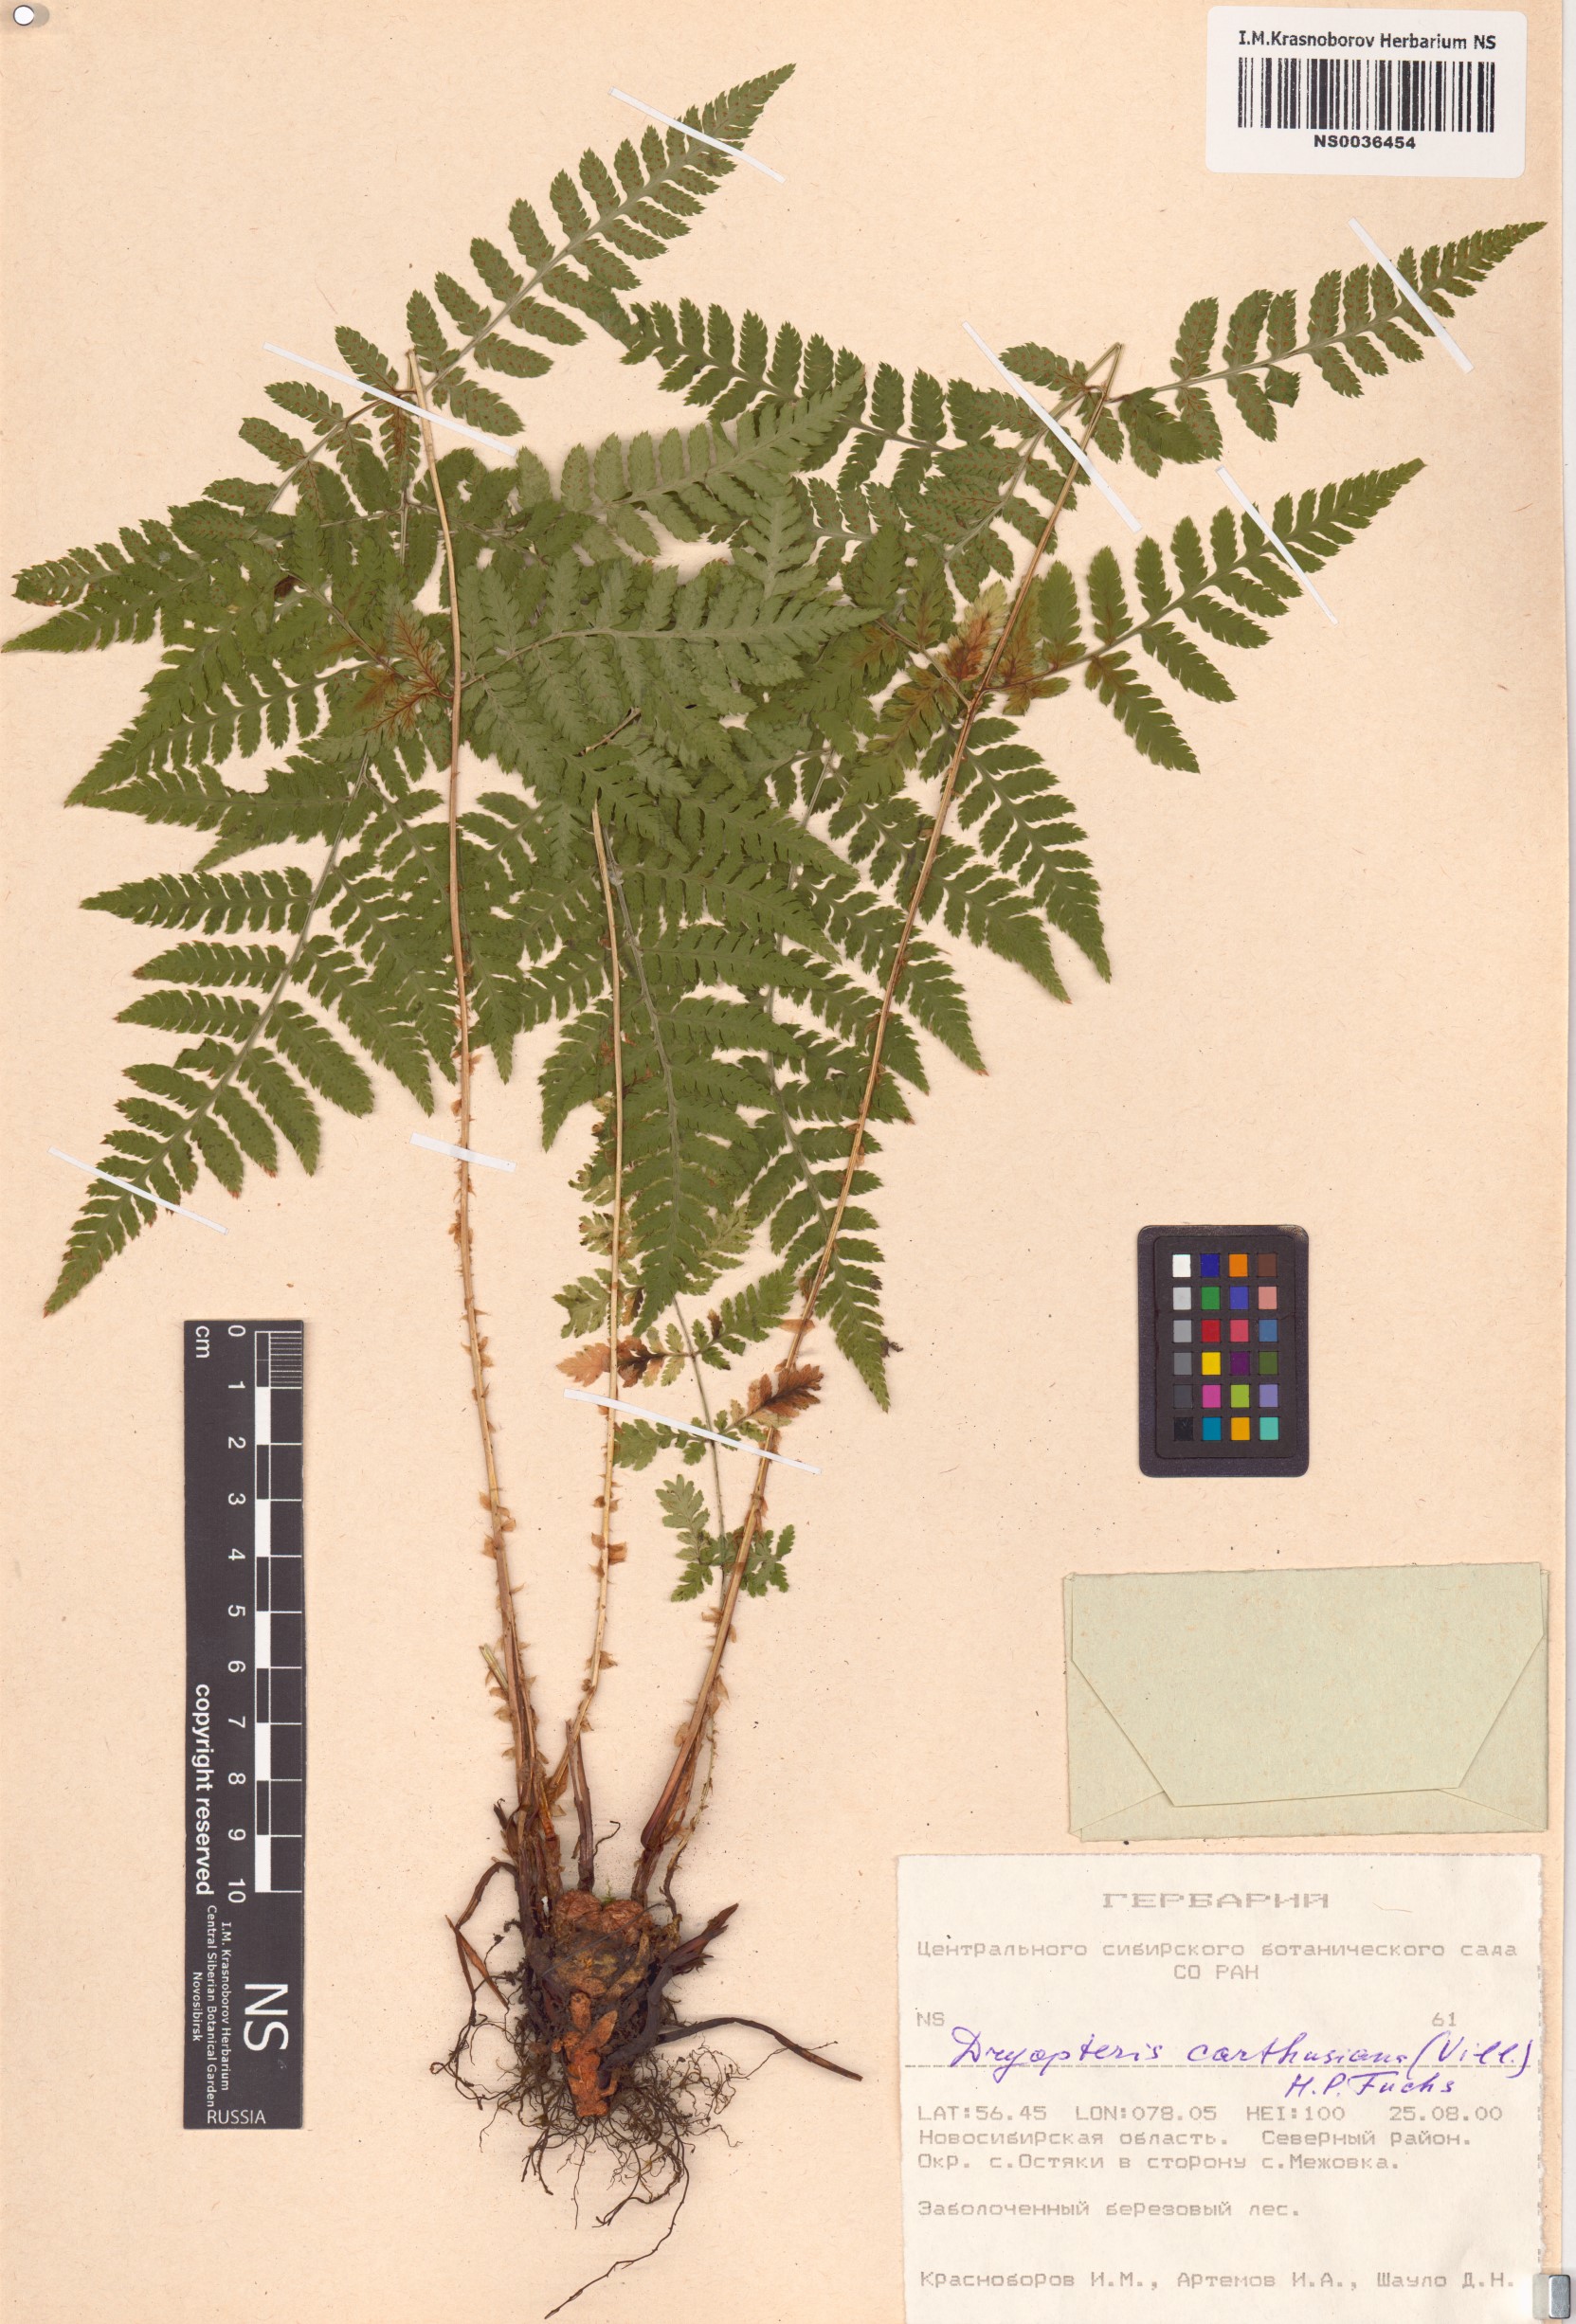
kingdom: Plantae
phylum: Tracheophyta
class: Polypodiopsida
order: Polypodiales
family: Dryopteridaceae
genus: Dryopteris
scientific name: Dryopteris carthusiana
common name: Narrow buckler-fern
